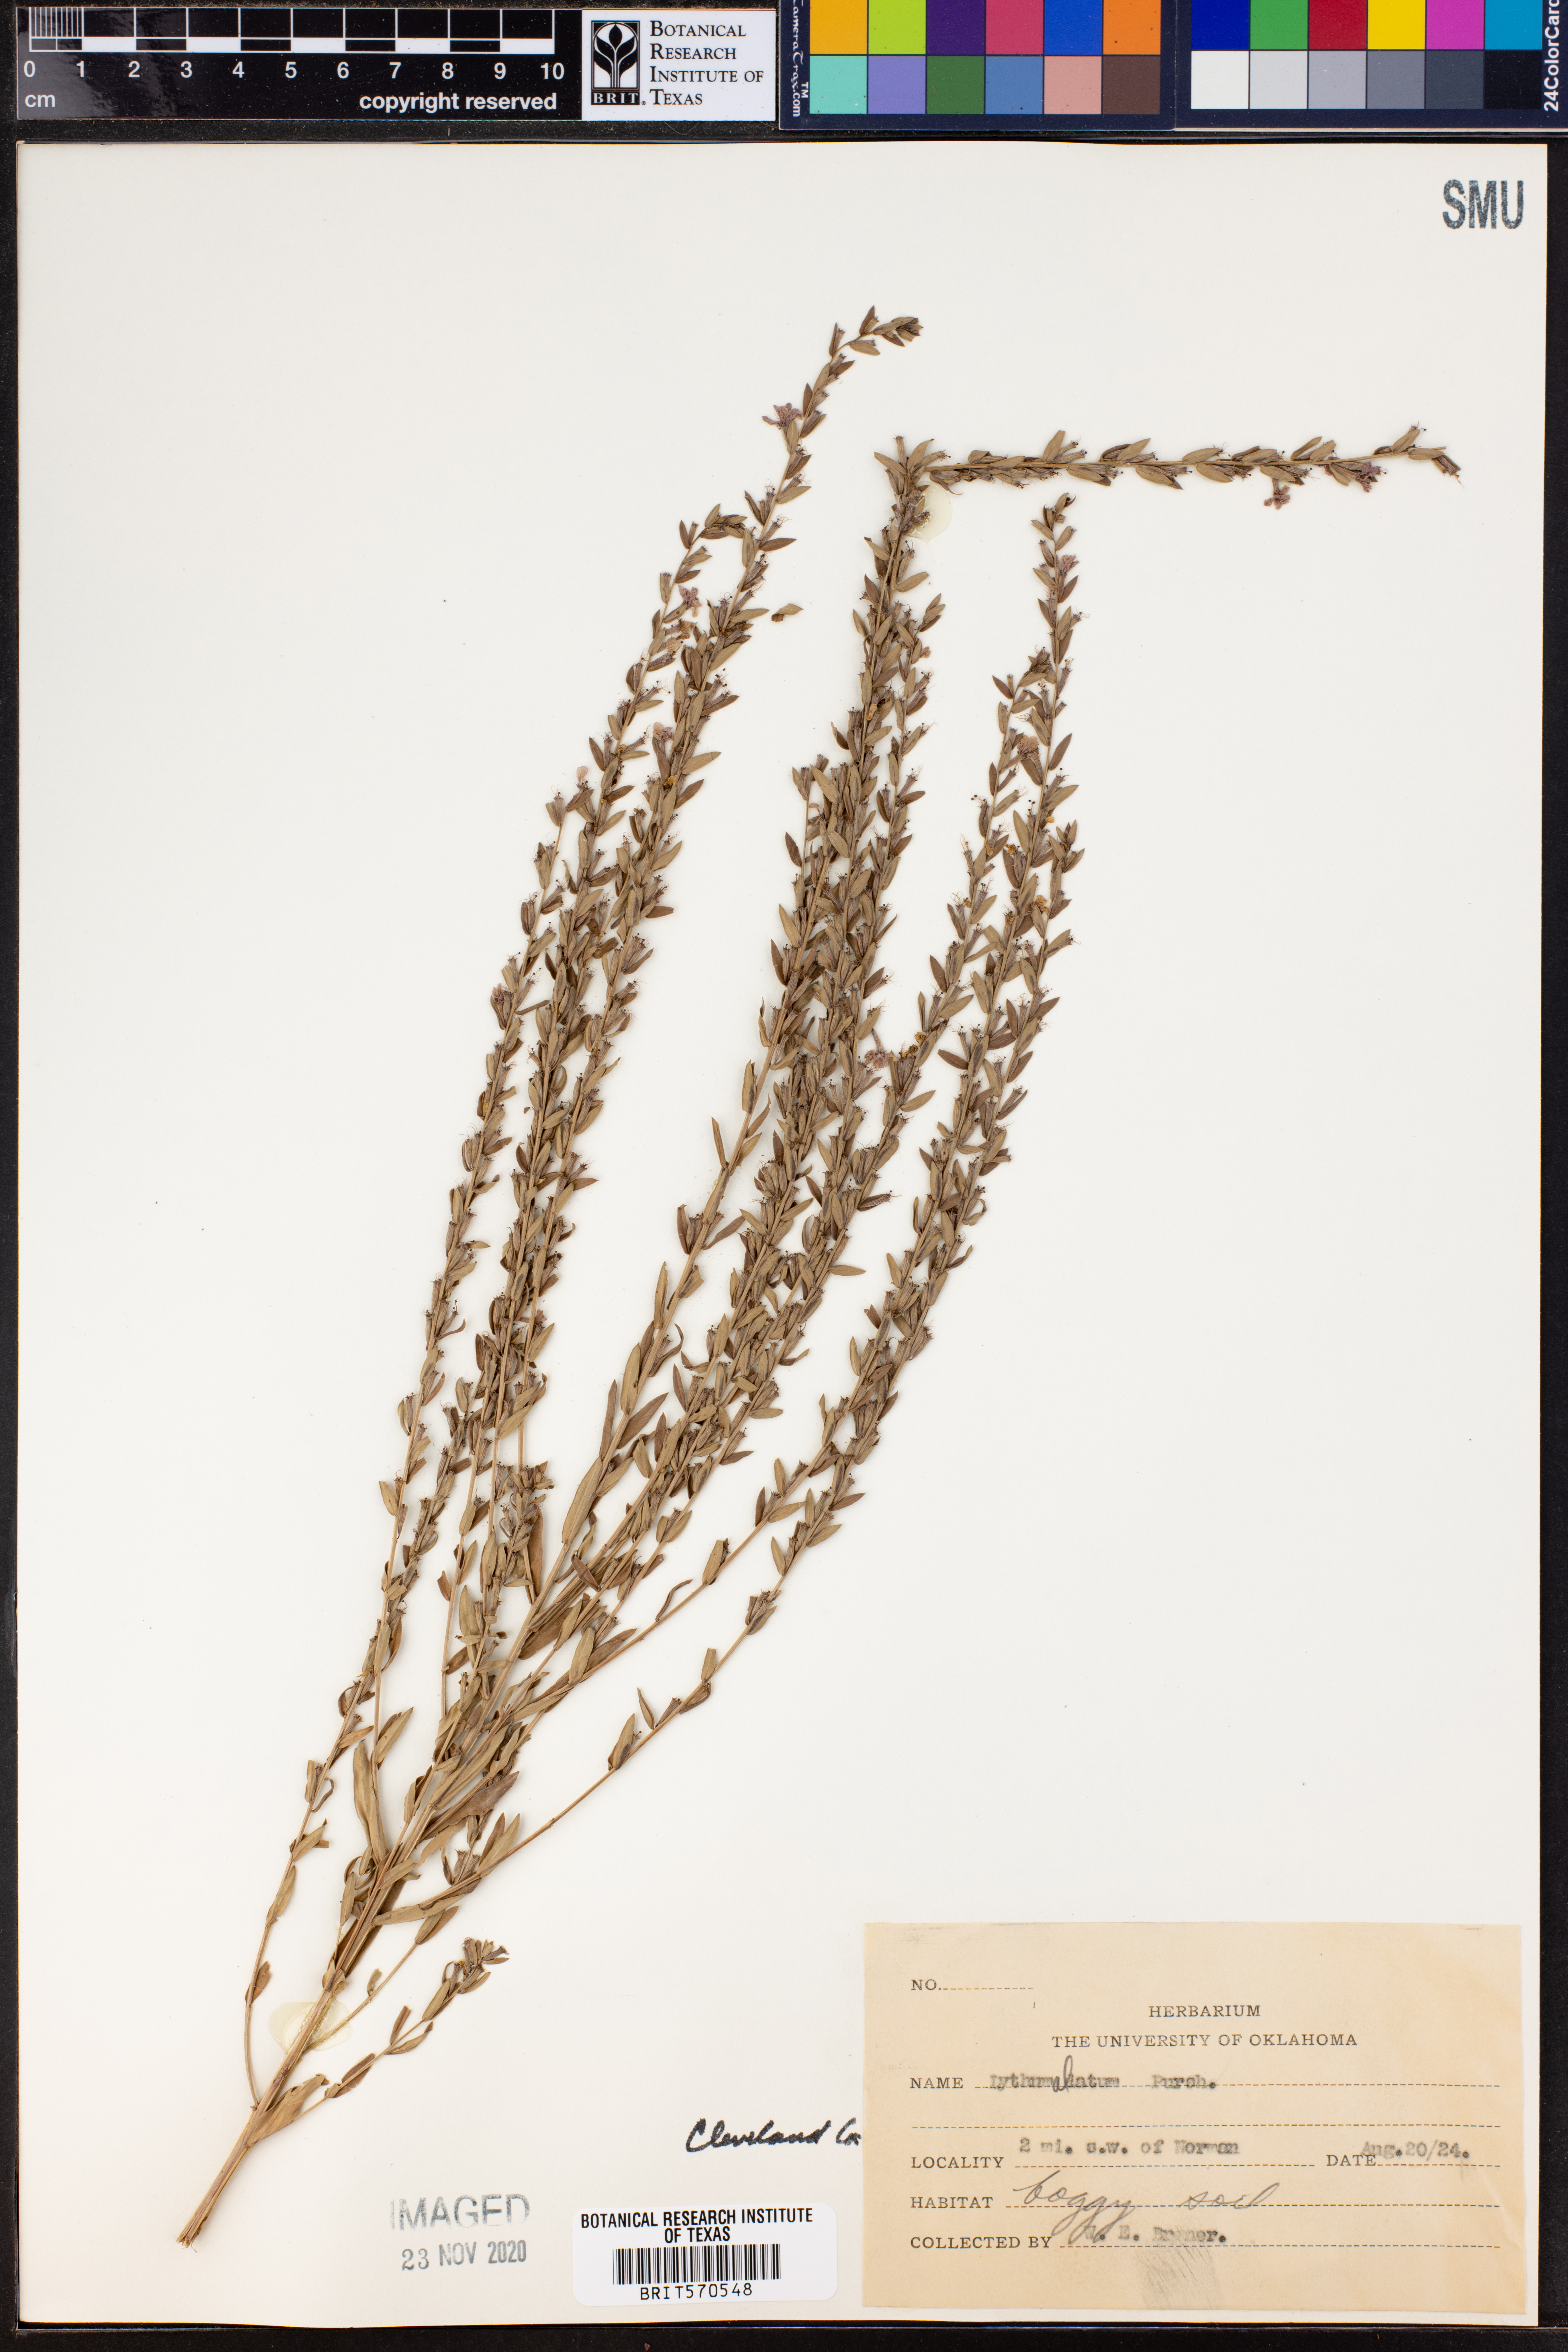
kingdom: Plantae
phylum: Tracheophyta
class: Magnoliopsida
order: Myrtales
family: Lythraceae
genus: Lythrum
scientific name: Lythrum alatum
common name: Winged loosestrife
